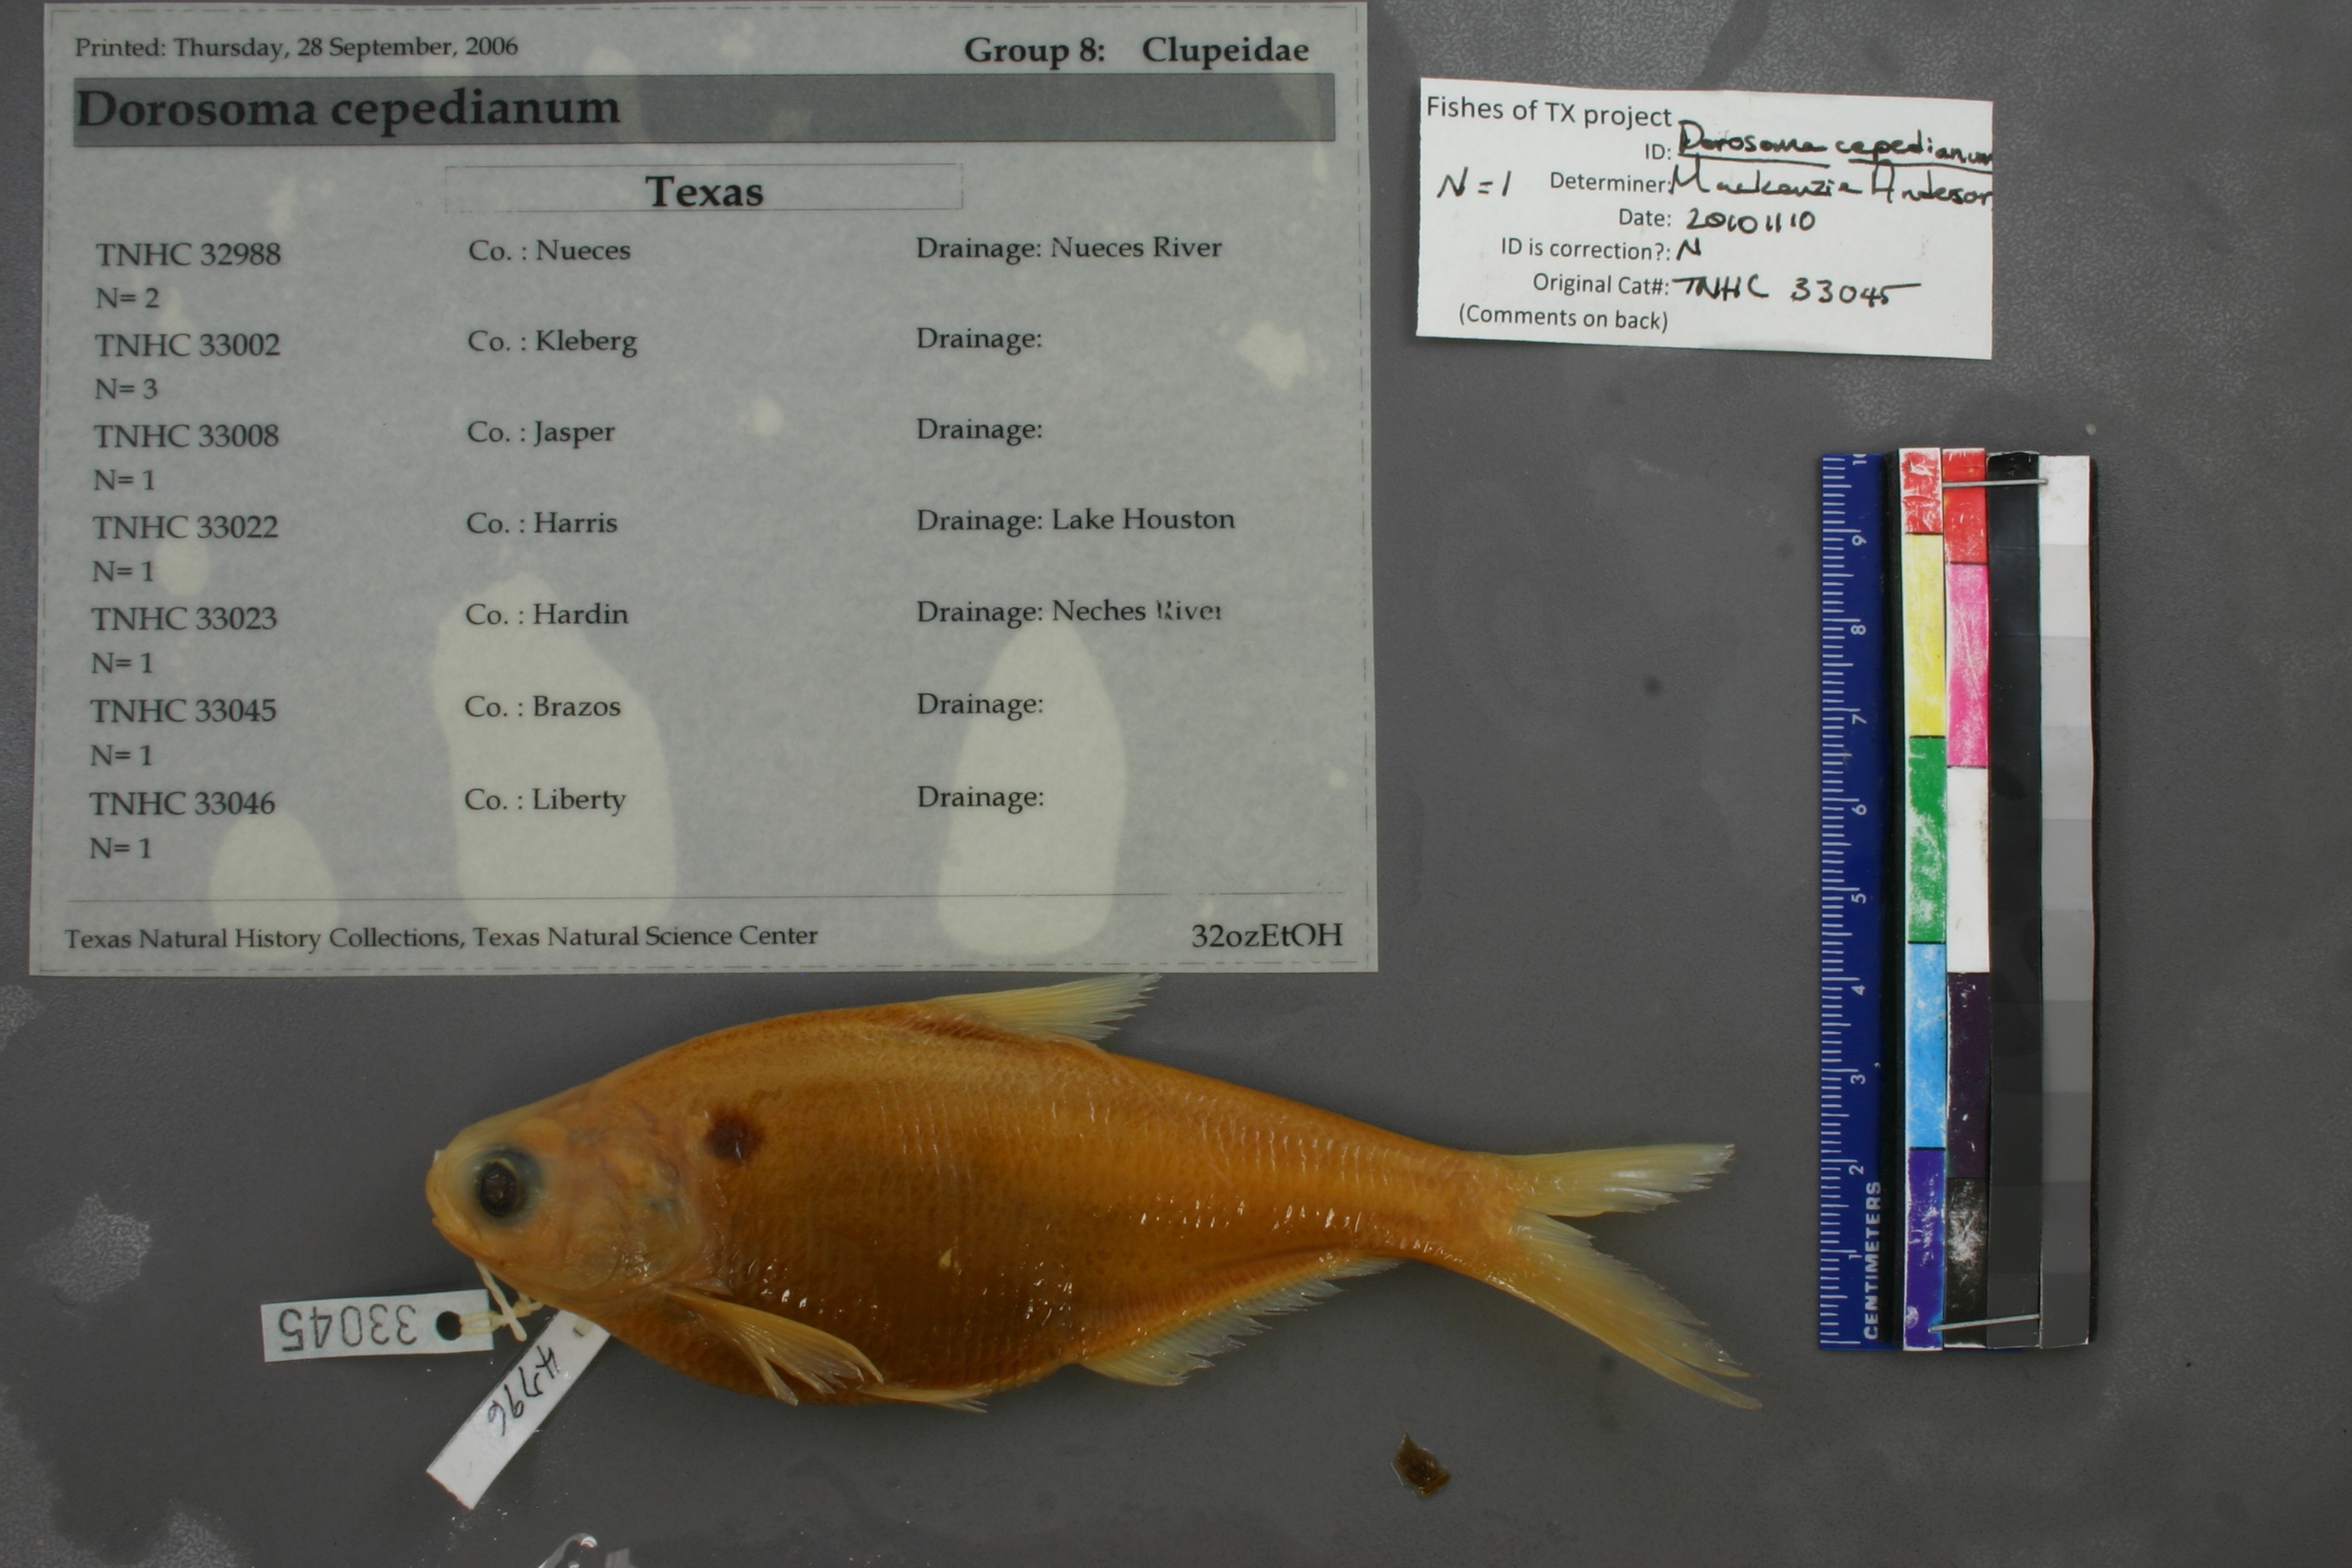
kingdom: Animalia
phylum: Chordata
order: Clupeiformes
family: Clupeidae
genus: Dorosoma
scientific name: Dorosoma cepedianum
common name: Gizzard shad
